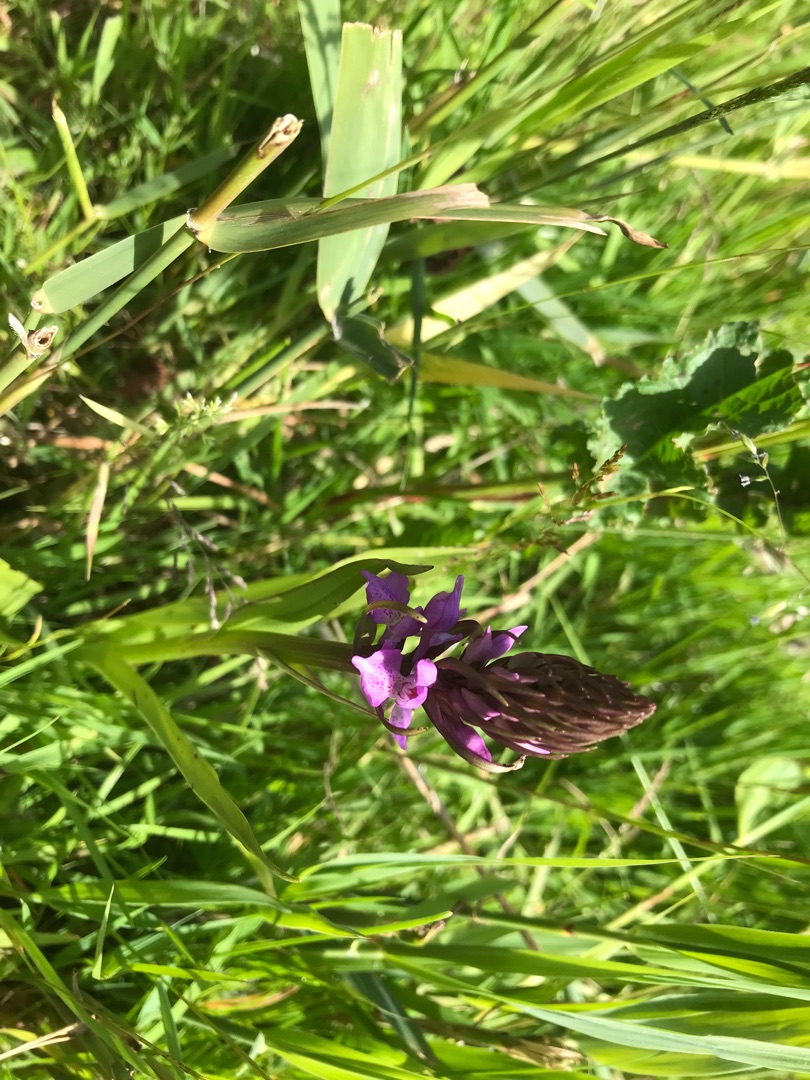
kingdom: Plantae
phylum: Tracheophyta
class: Liliopsida
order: Asparagales
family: Orchidaceae
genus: Dactylorhiza
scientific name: Dactylorhiza majalis
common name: Priklæbet gøgeurt
